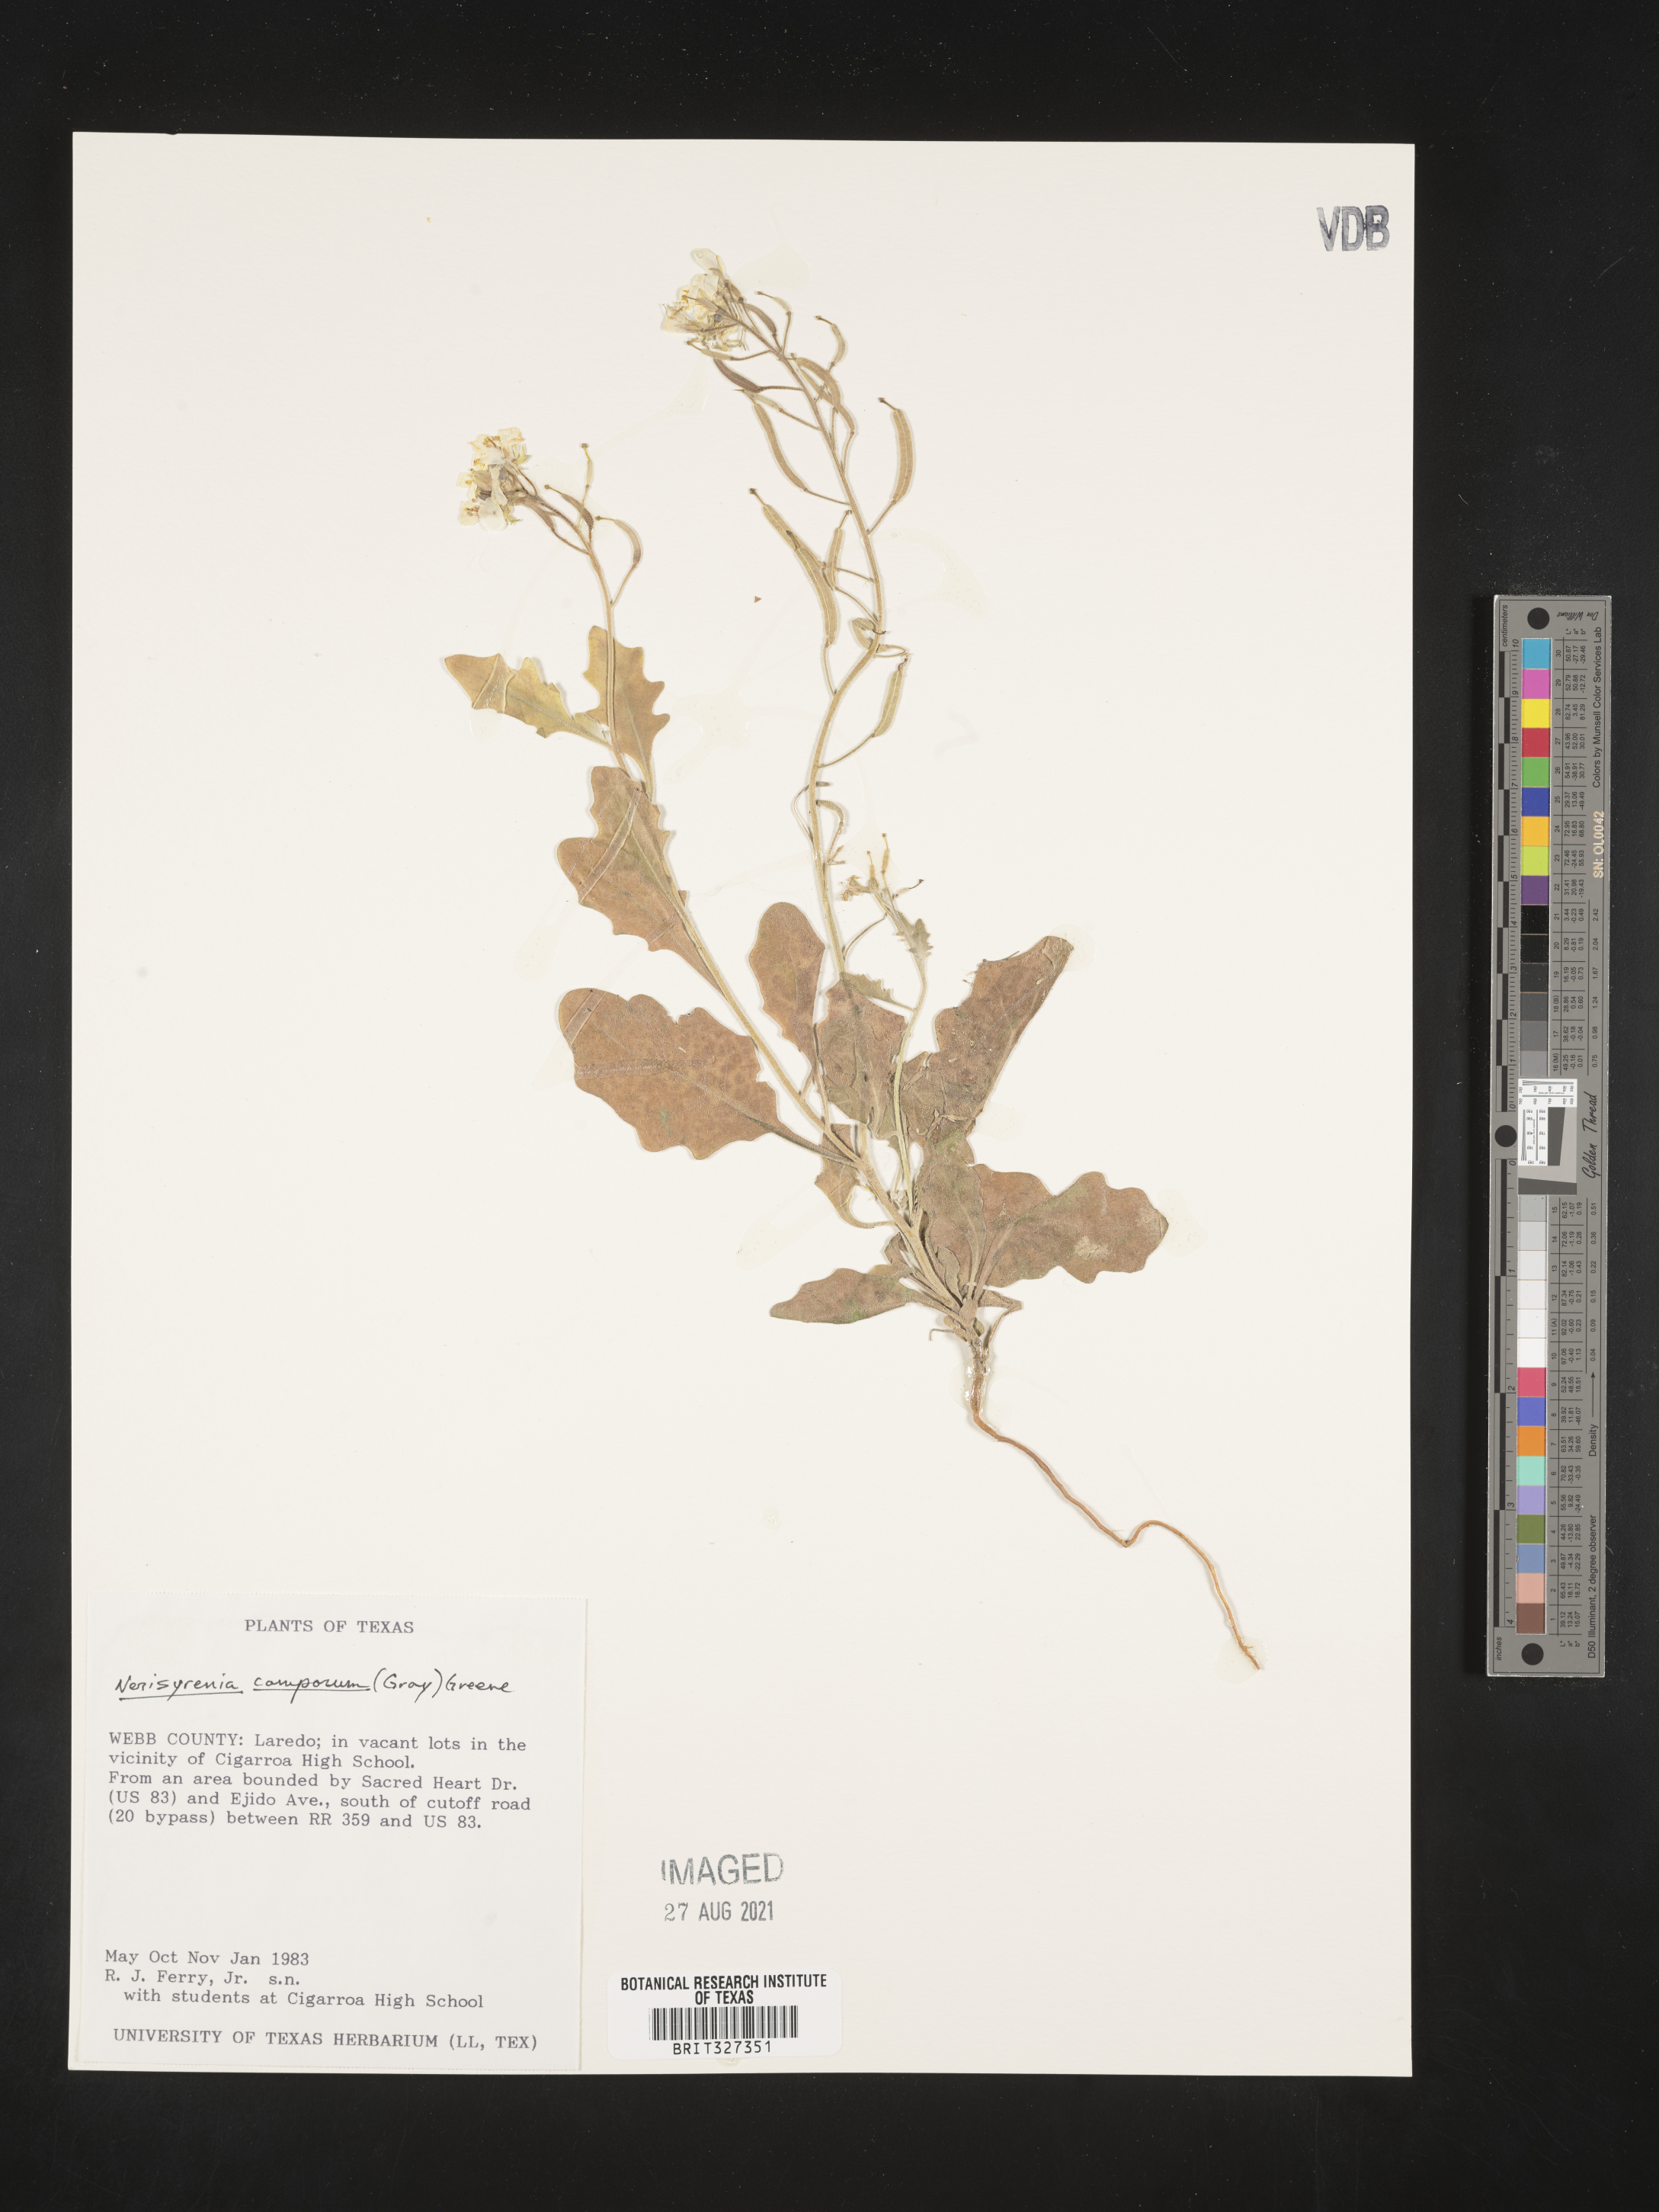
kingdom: Plantae
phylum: Tracheophyta
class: Magnoliopsida
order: Brassicales
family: Brassicaceae
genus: Nerisyrenia
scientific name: Nerisyrenia camporum
